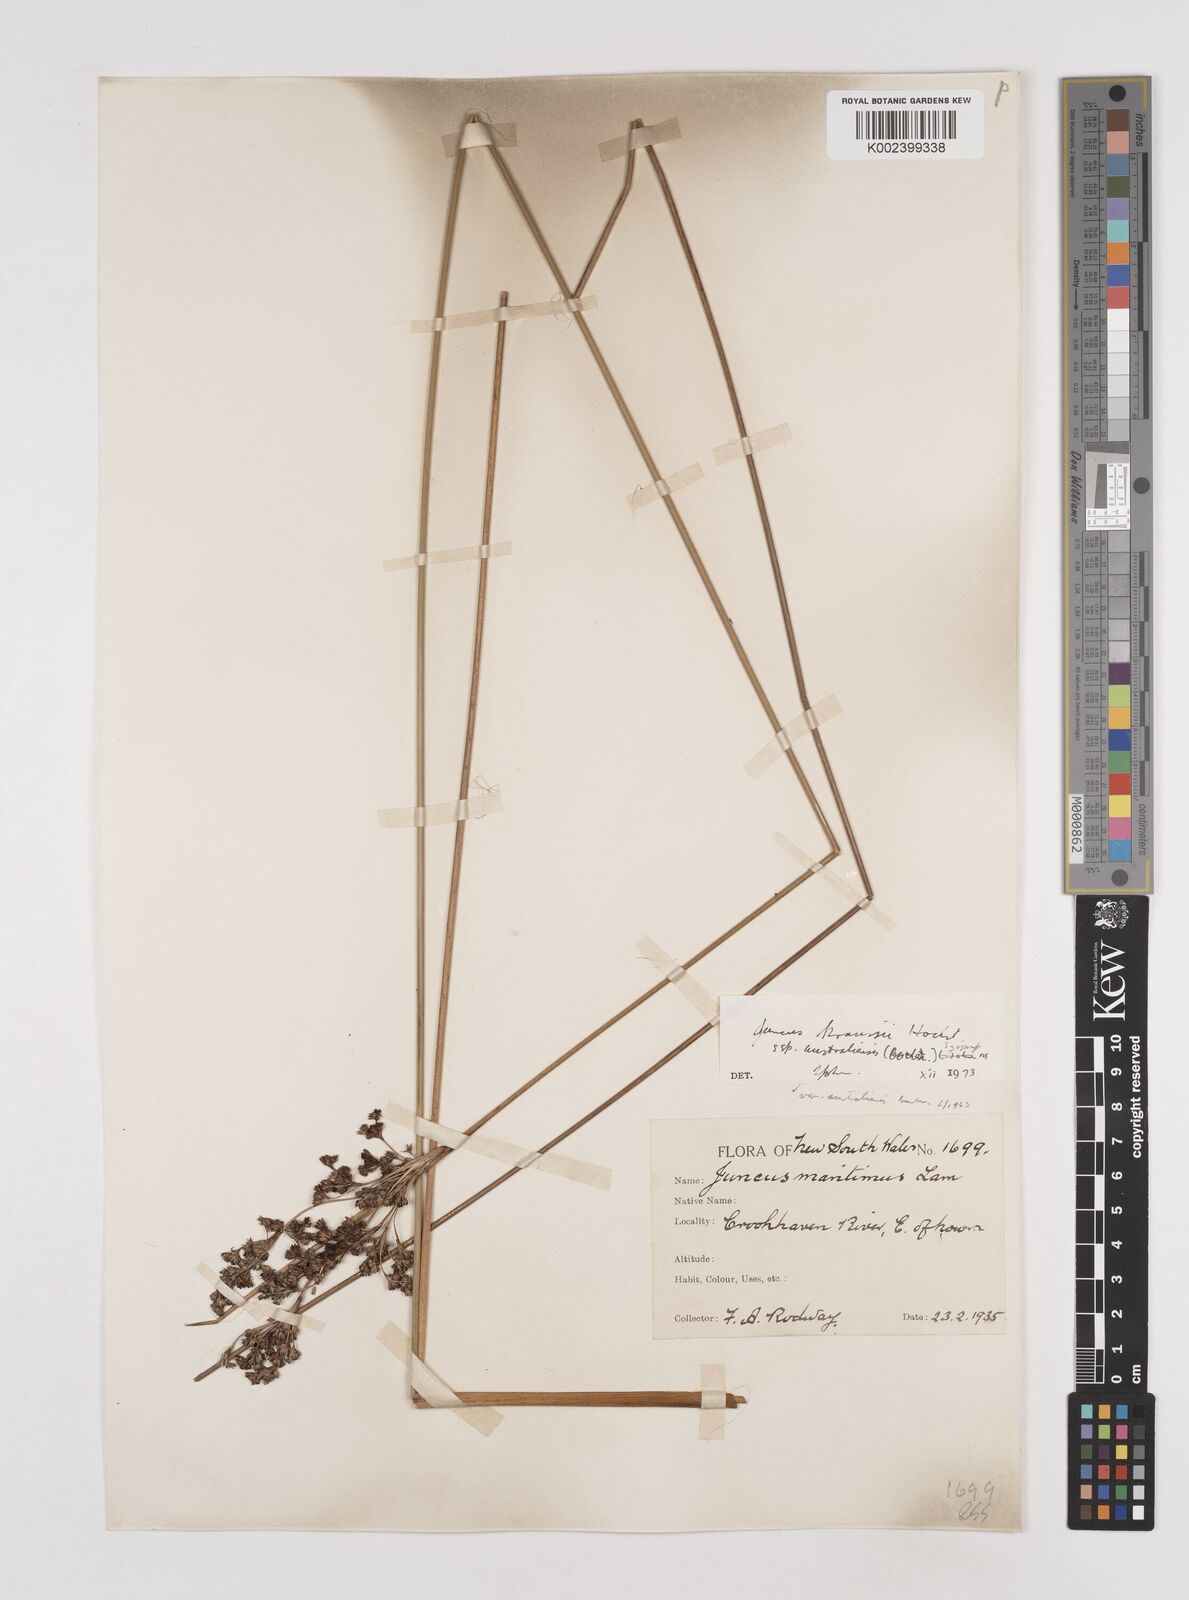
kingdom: Plantae
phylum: Tracheophyta
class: Liliopsida
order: Poales
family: Juncaceae
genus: Juncus
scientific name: Juncus kraussii
